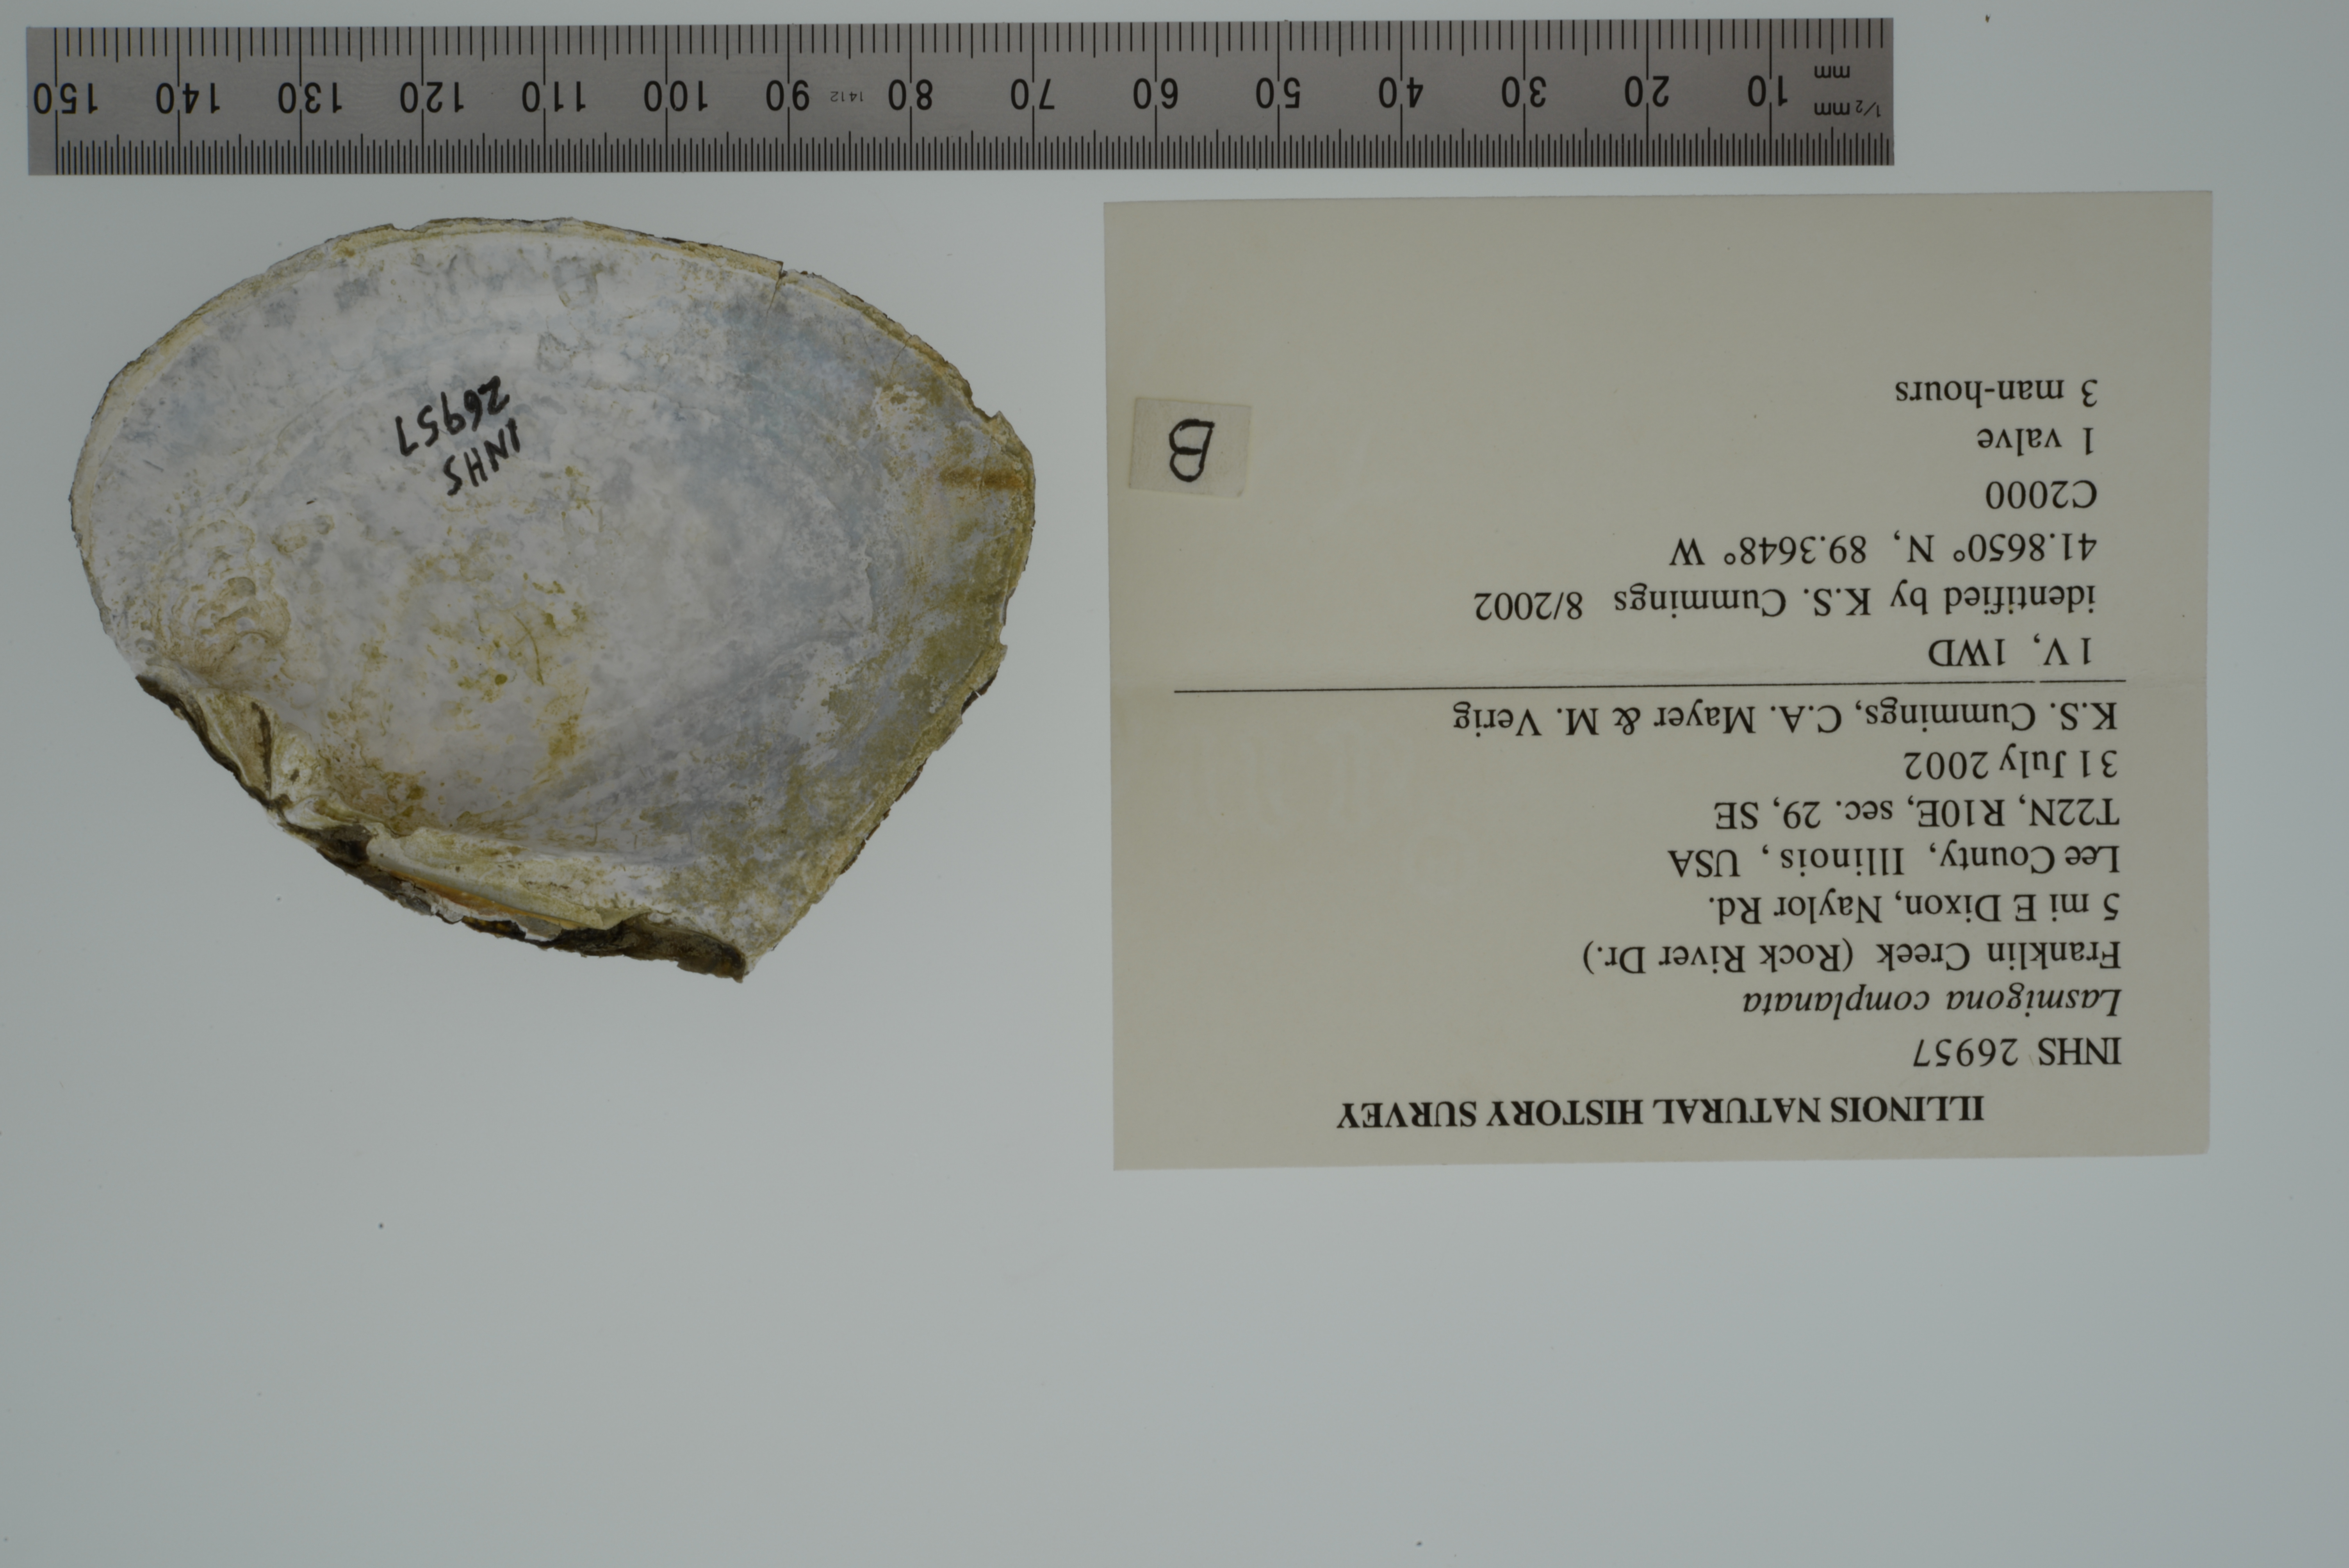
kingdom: Animalia
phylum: Mollusca
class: Bivalvia
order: Unionida
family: Unionidae
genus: Lasmigona
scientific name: Lasmigona complanata
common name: White heelsplitter
